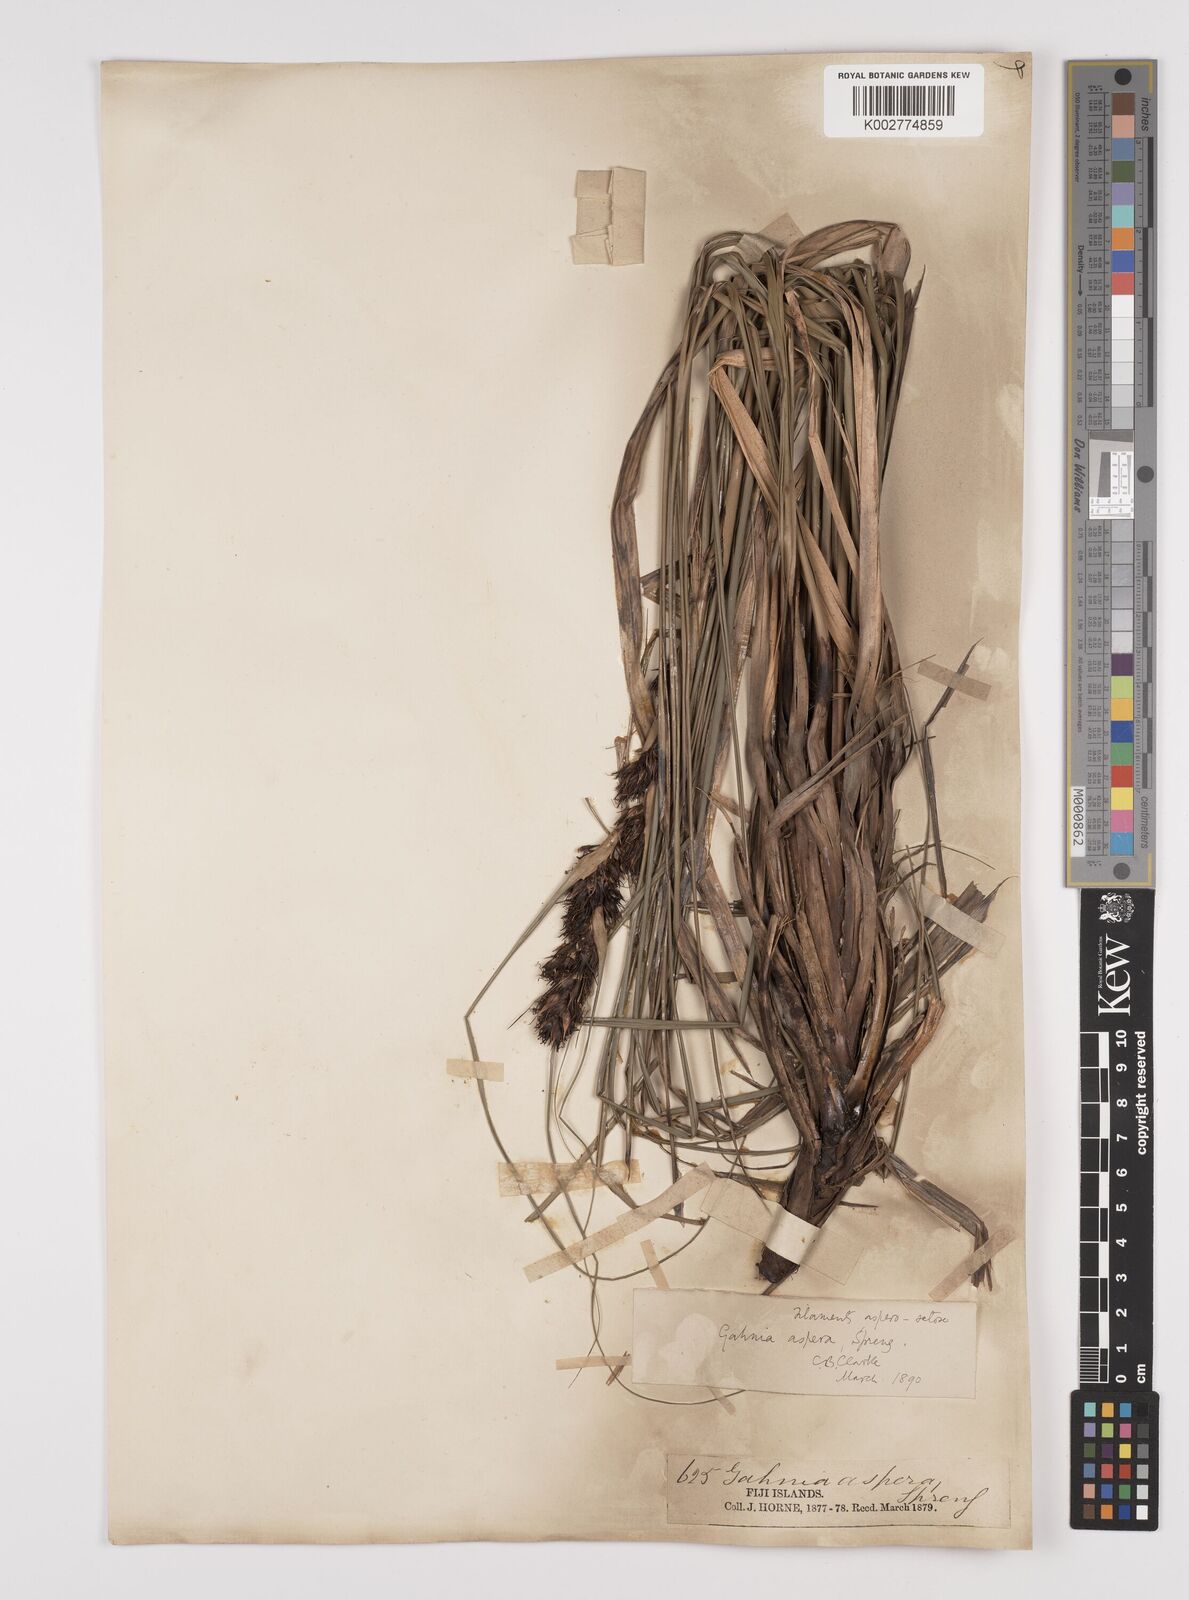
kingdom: Plantae
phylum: Tracheophyta
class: Liliopsida
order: Poales
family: Cyperaceae
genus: Gahnia
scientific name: Gahnia aspera
